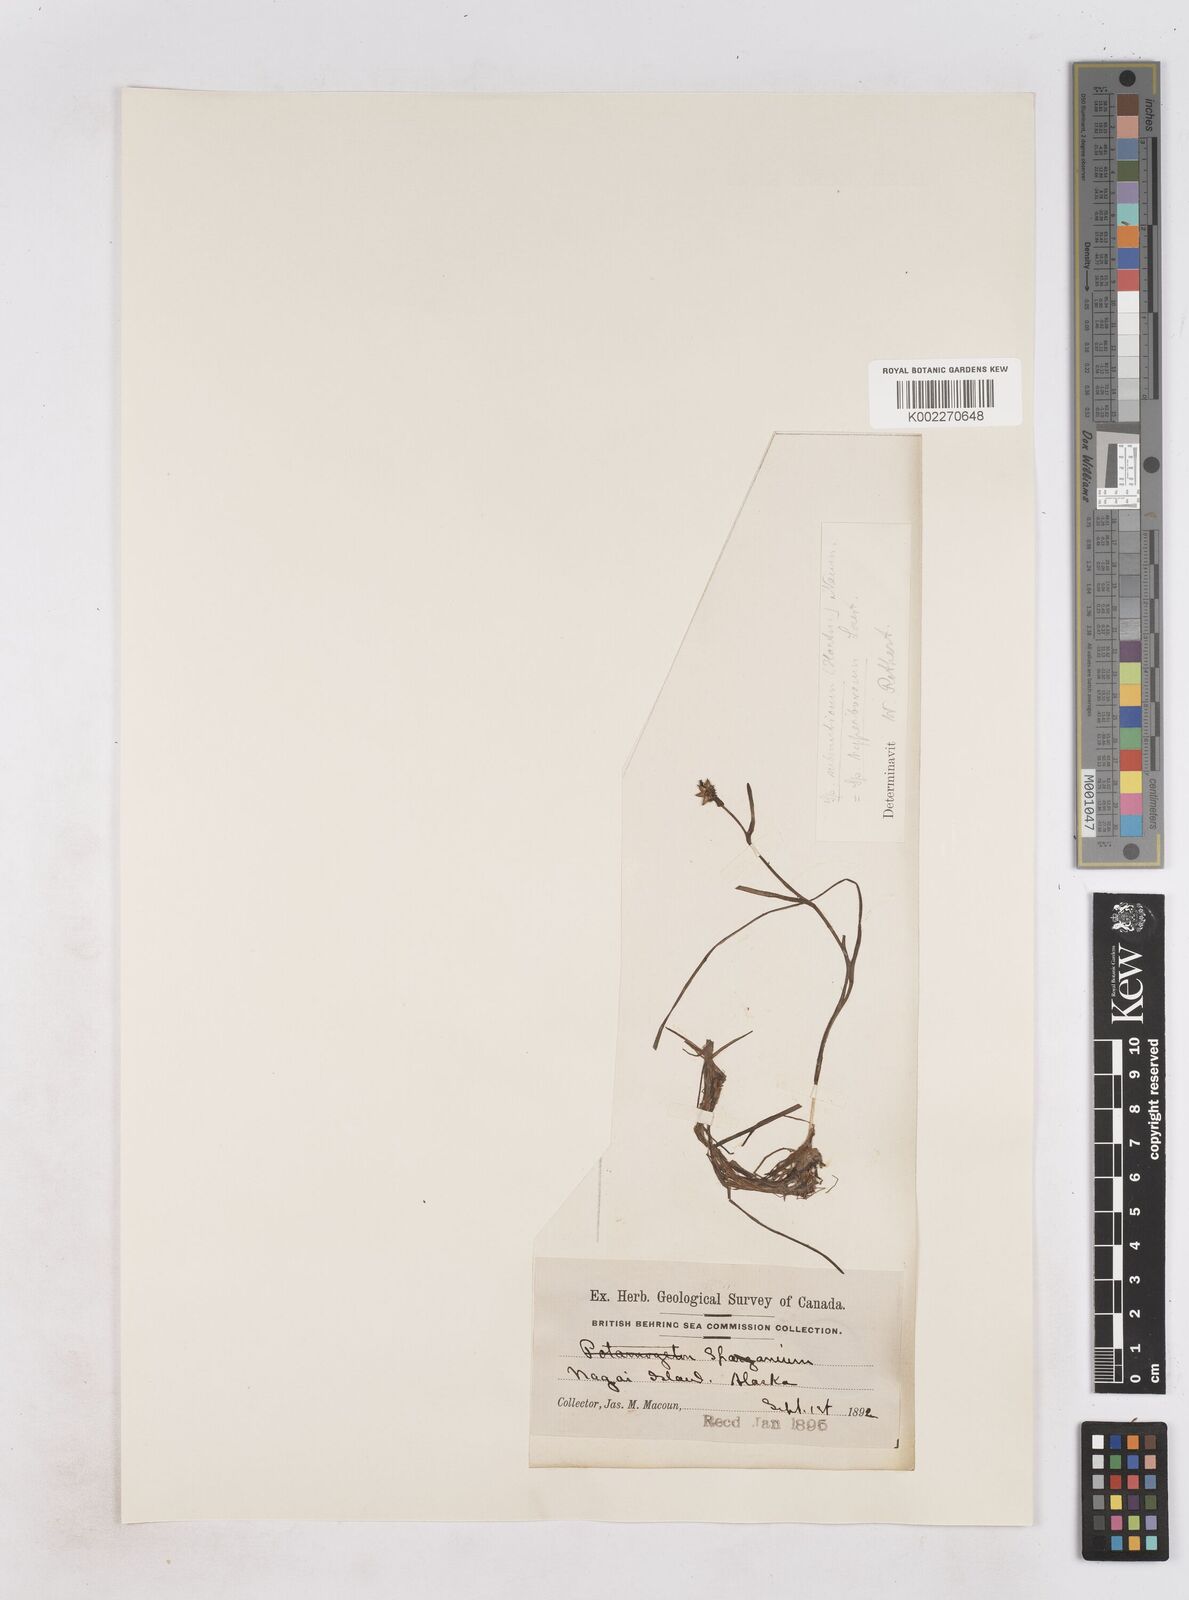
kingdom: Plantae
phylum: Tracheophyta
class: Liliopsida
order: Poales
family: Typhaceae
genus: Sparganium
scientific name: Sparganium hyperboreum
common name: Arctic burreed
